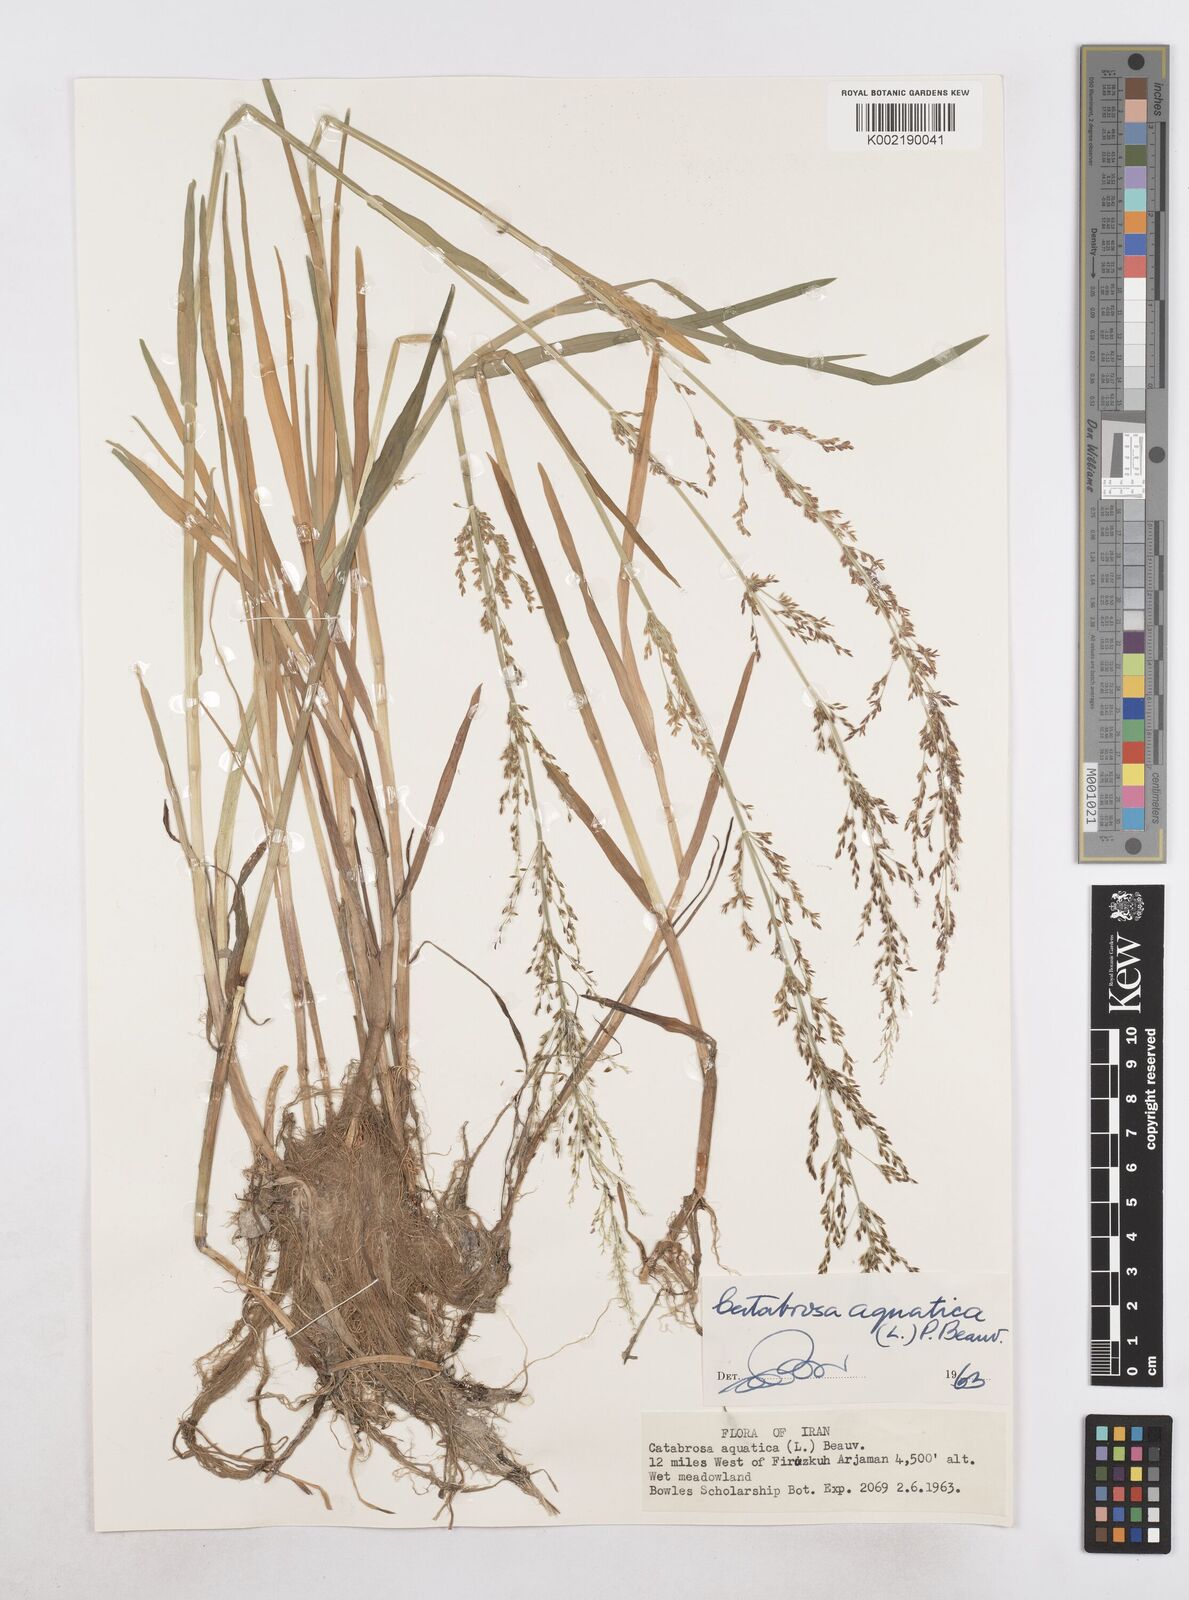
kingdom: Plantae
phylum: Tracheophyta
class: Liliopsida
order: Poales
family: Poaceae
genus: Catabrosa
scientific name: Catabrosa aquatica
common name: Whorl-grass
